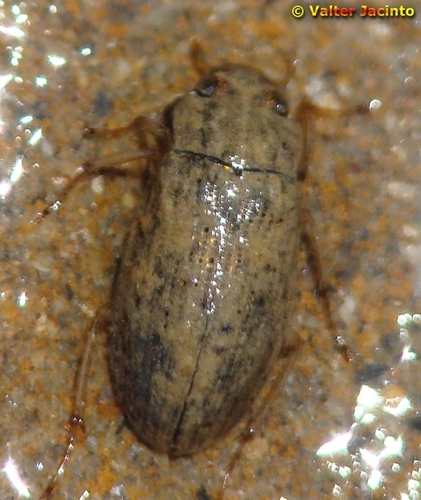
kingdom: Animalia
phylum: Arthropoda
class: Insecta
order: Coleoptera
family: Helophoridae
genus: Helophorus
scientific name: Helophorus
